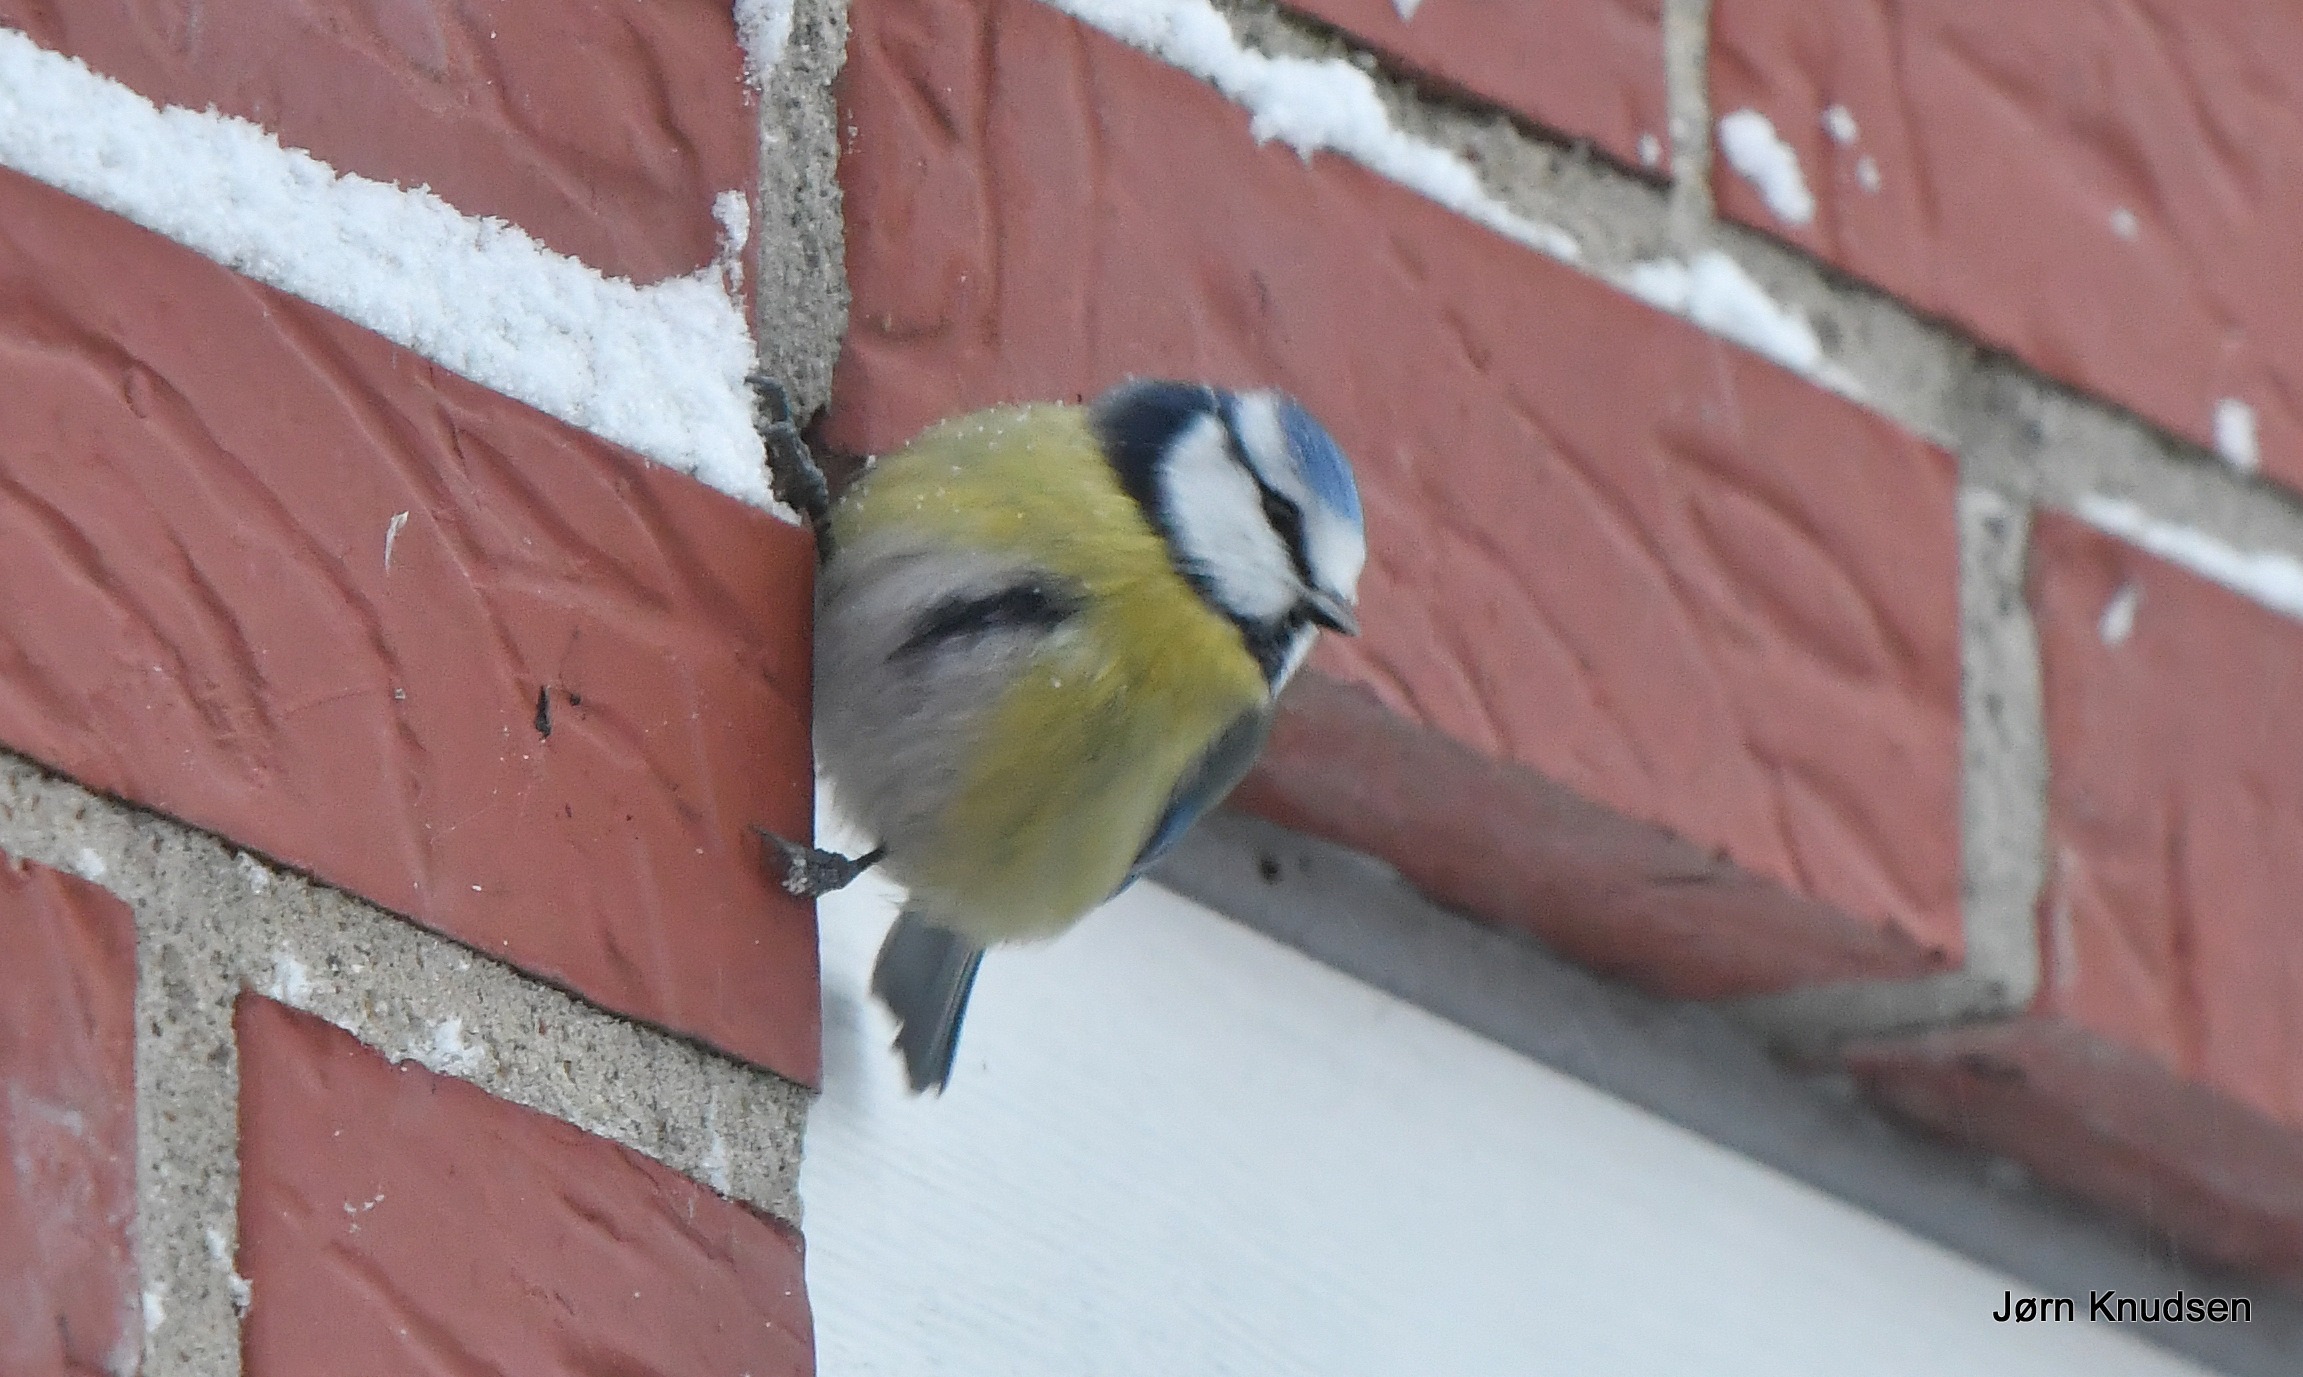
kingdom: Animalia
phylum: Chordata
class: Aves
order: Passeriformes
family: Paridae
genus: Cyanistes
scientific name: Cyanistes caeruleus
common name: Blåmejse
